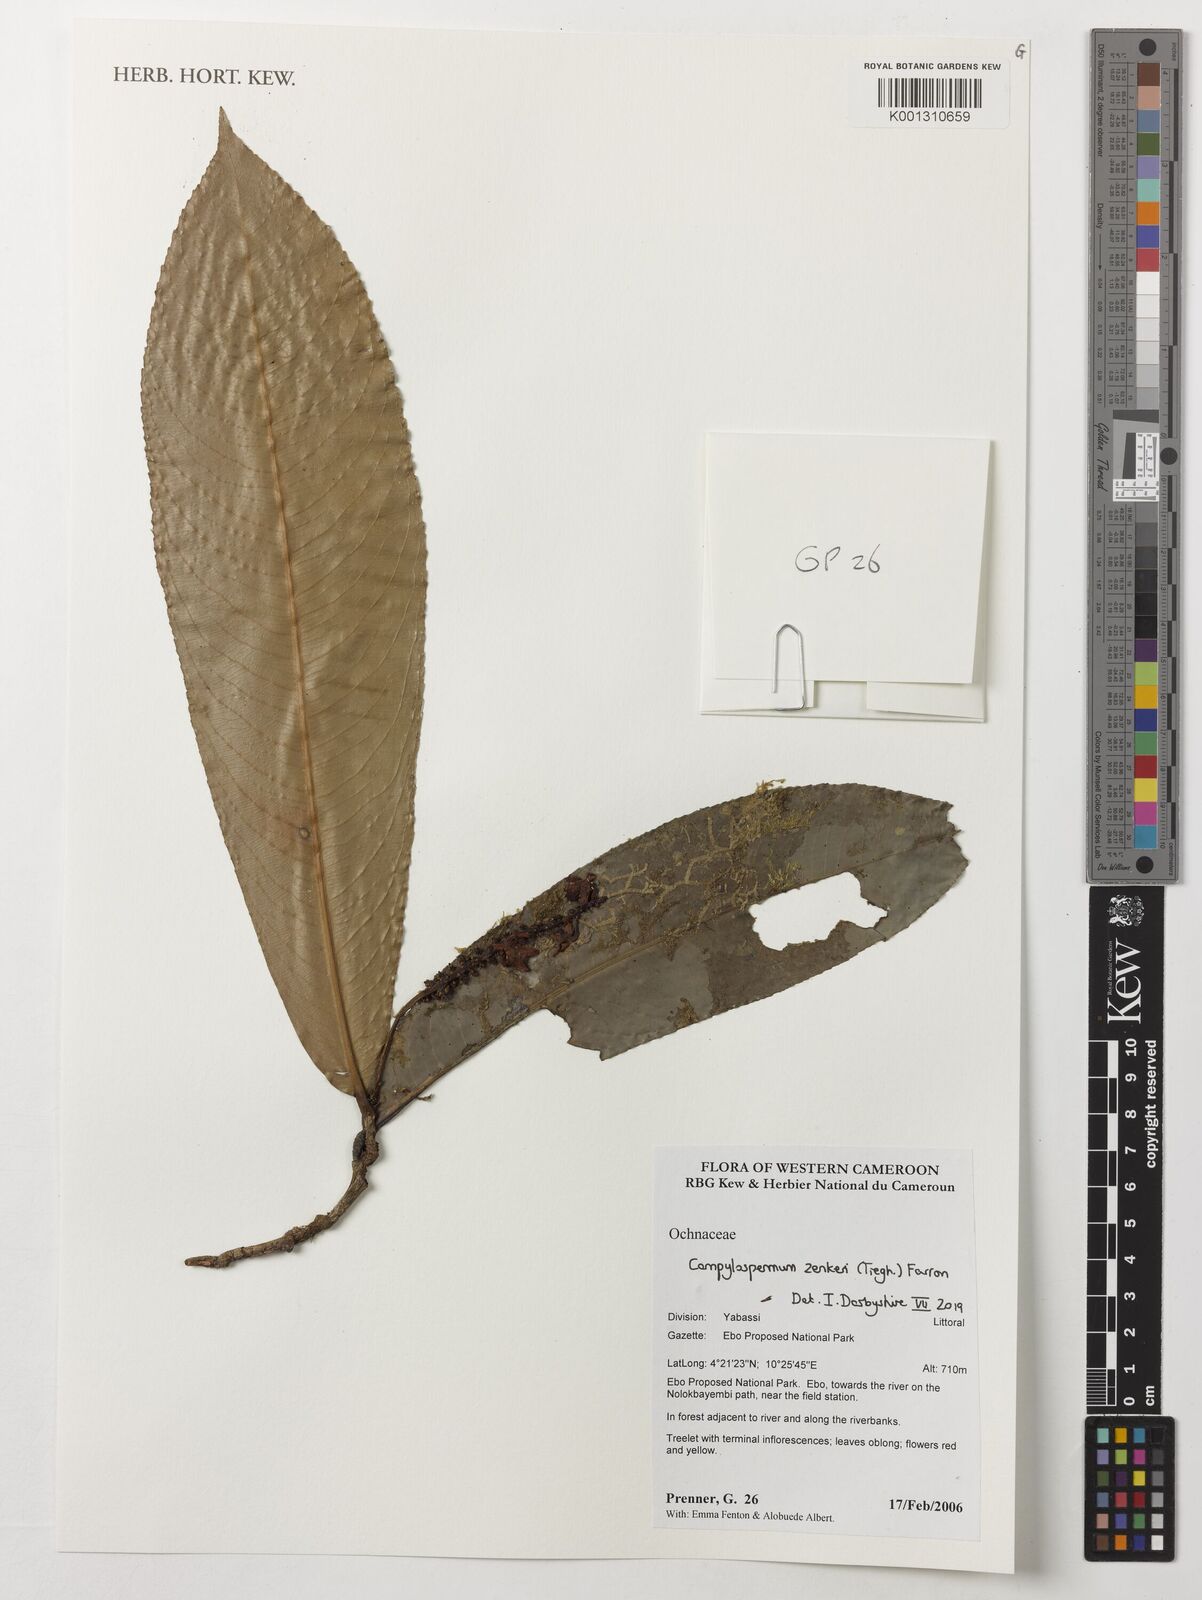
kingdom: Plantae
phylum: Tracheophyta
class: Magnoliopsida
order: Malpighiales
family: Ochnaceae
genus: Campylospermum
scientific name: Campylospermum zenkeri
